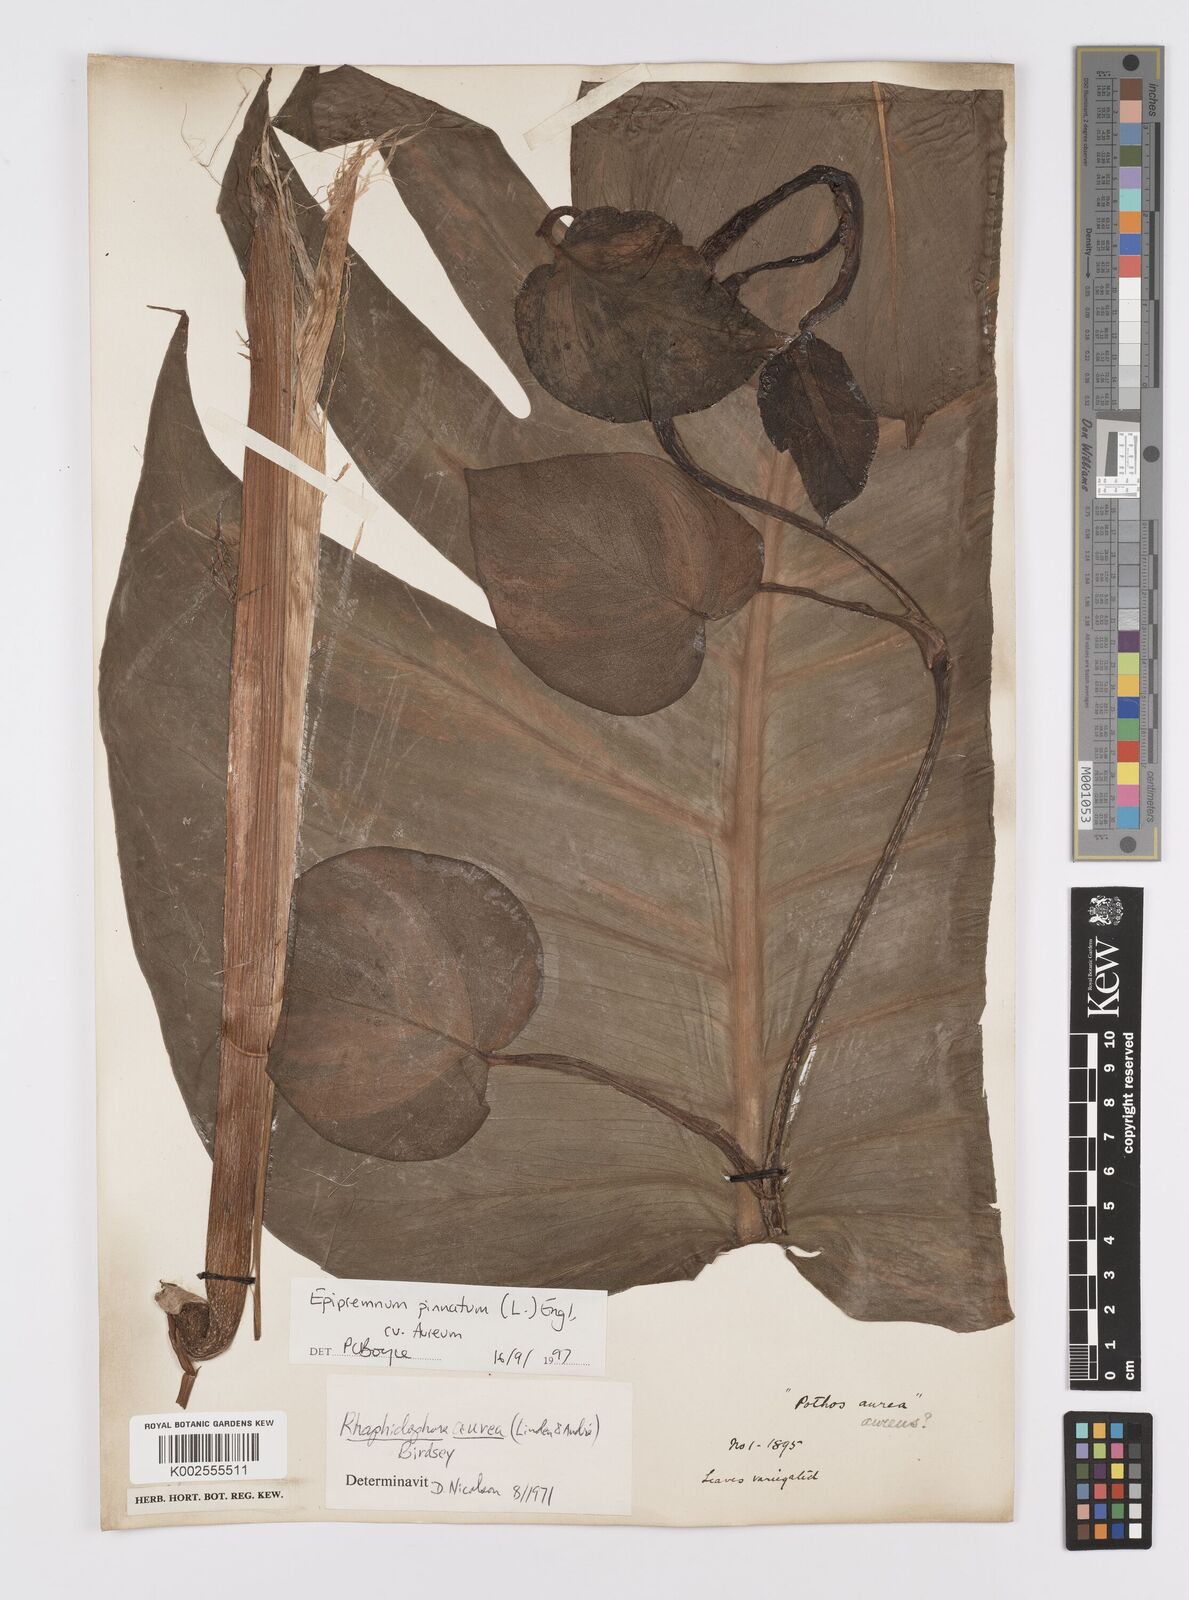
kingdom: Plantae
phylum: Tracheophyta
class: Liliopsida
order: Alismatales
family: Araceae
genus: Epipremnum
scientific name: Epipremnum aureum
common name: Golden hunter's-robe
